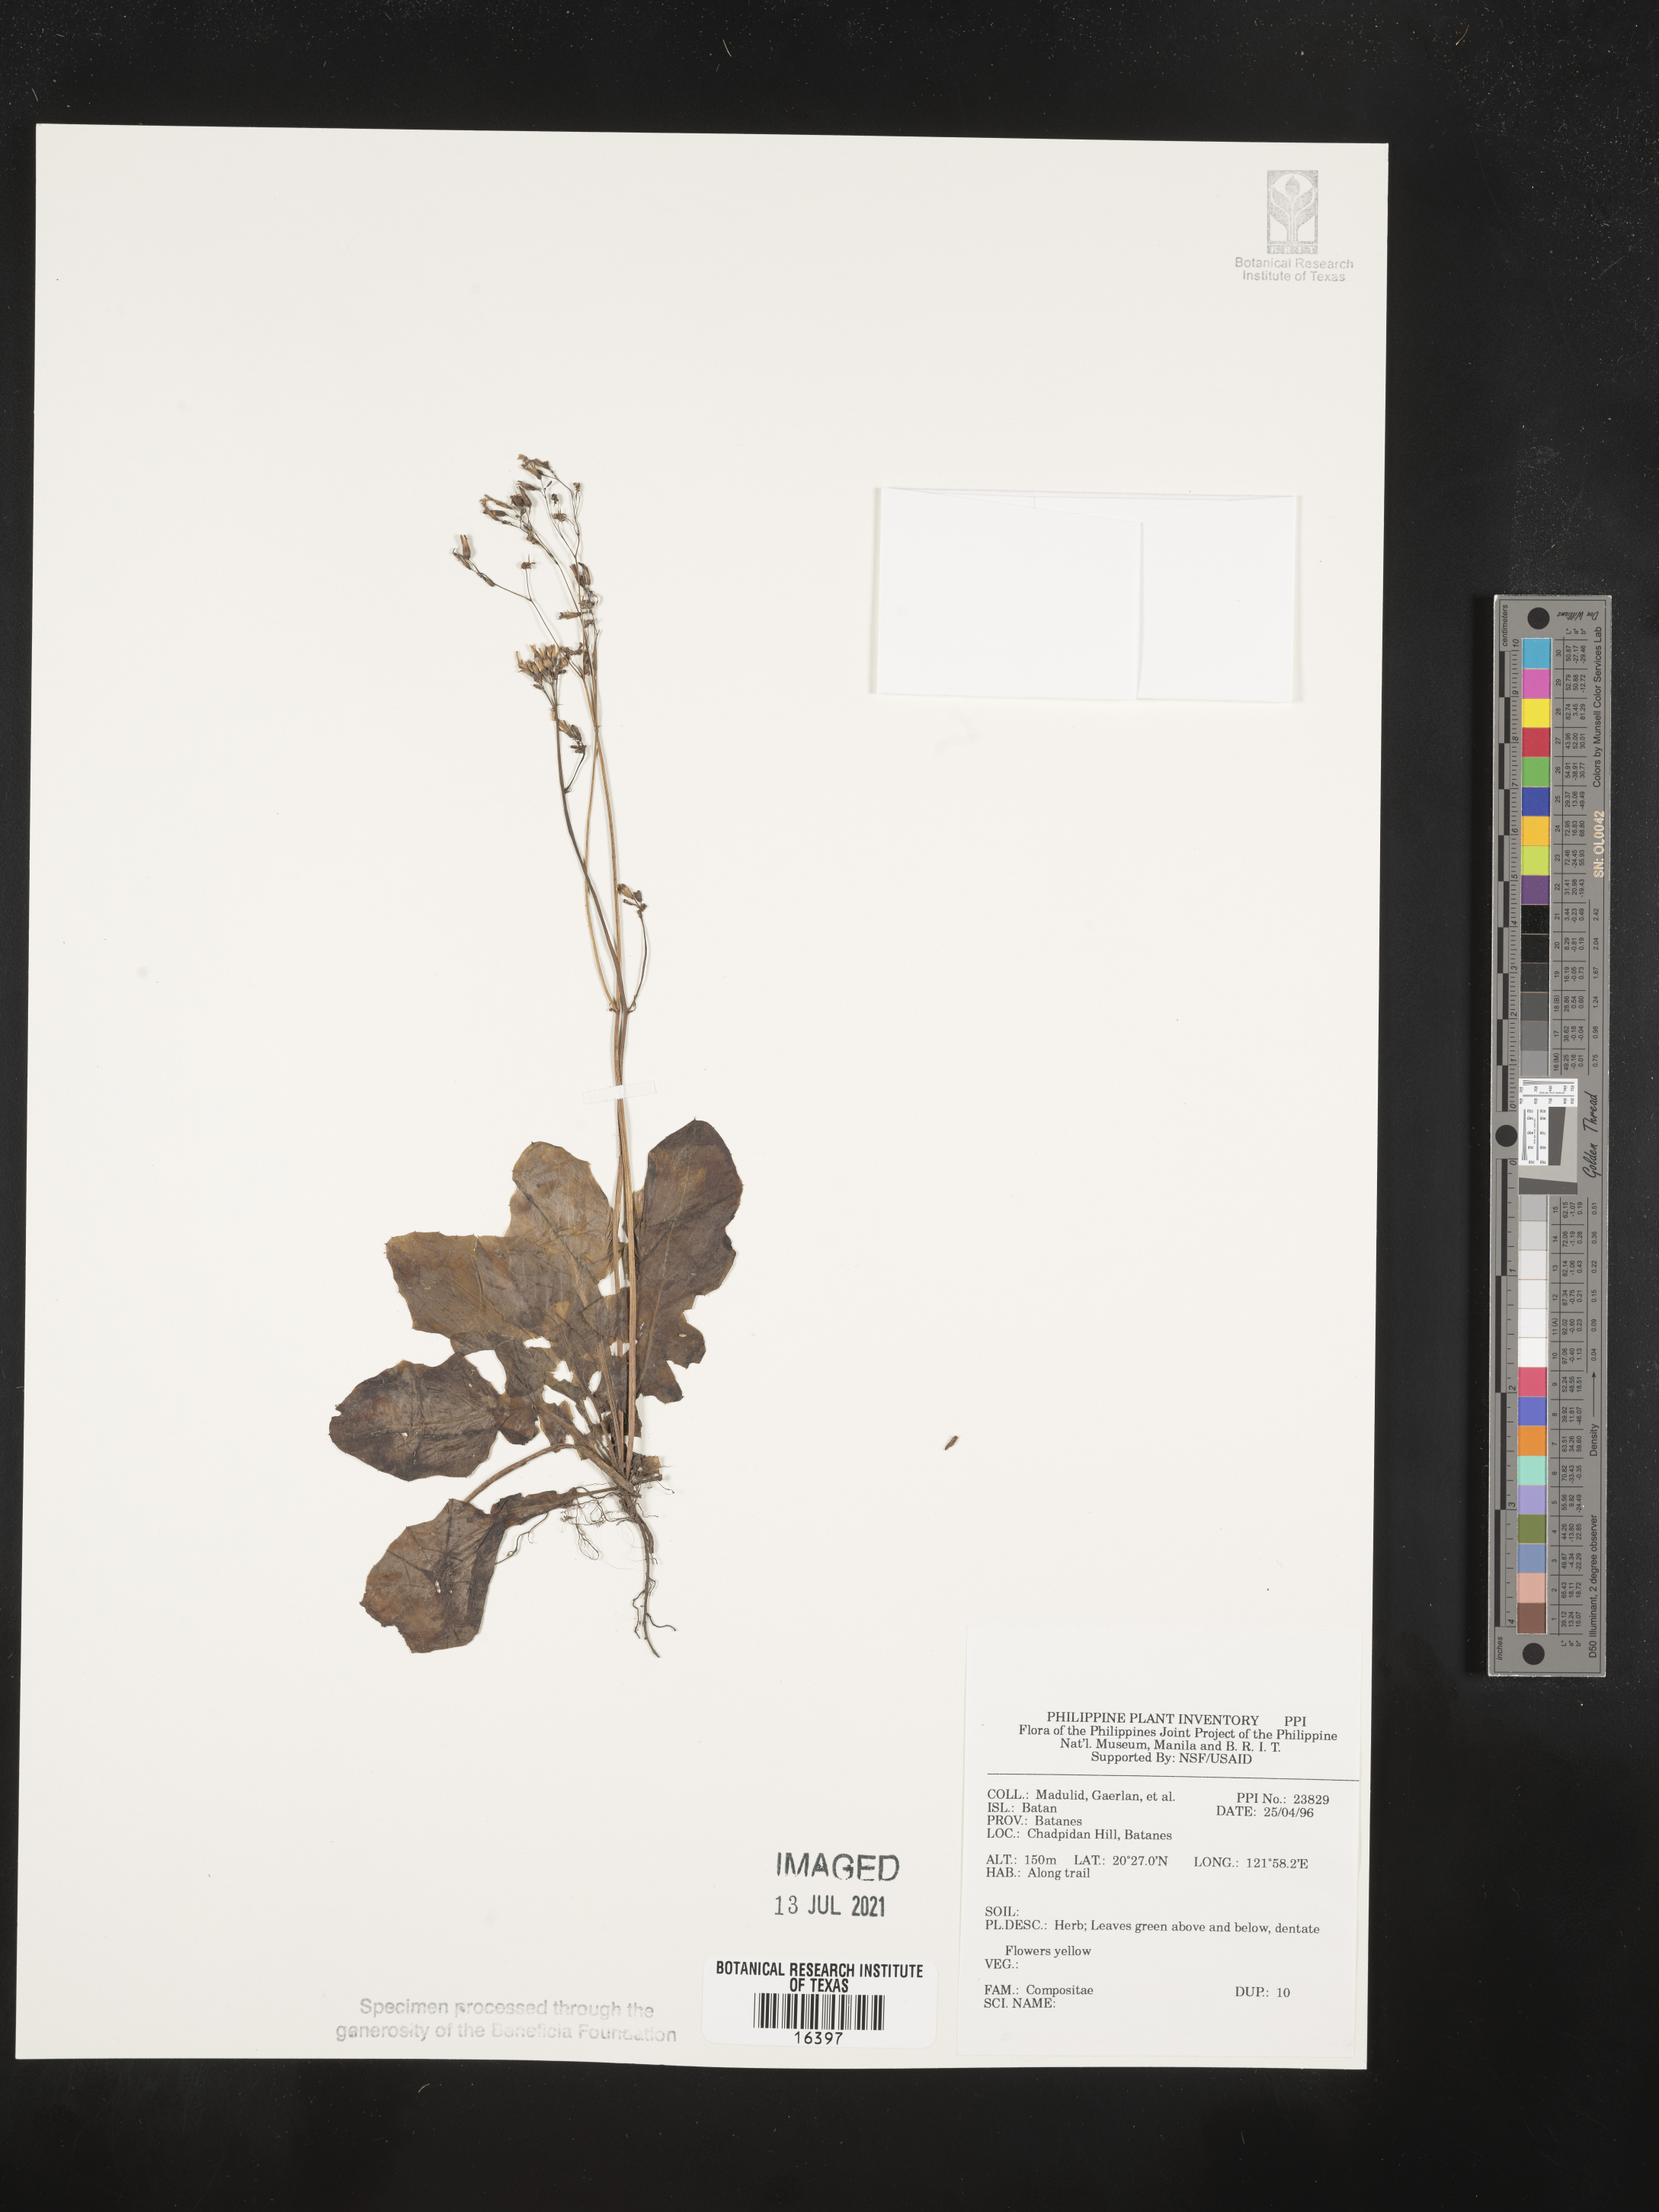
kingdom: Plantae
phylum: Tracheophyta
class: Magnoliopsida
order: Asterales
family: Asteraceae
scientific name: Asteraceae
